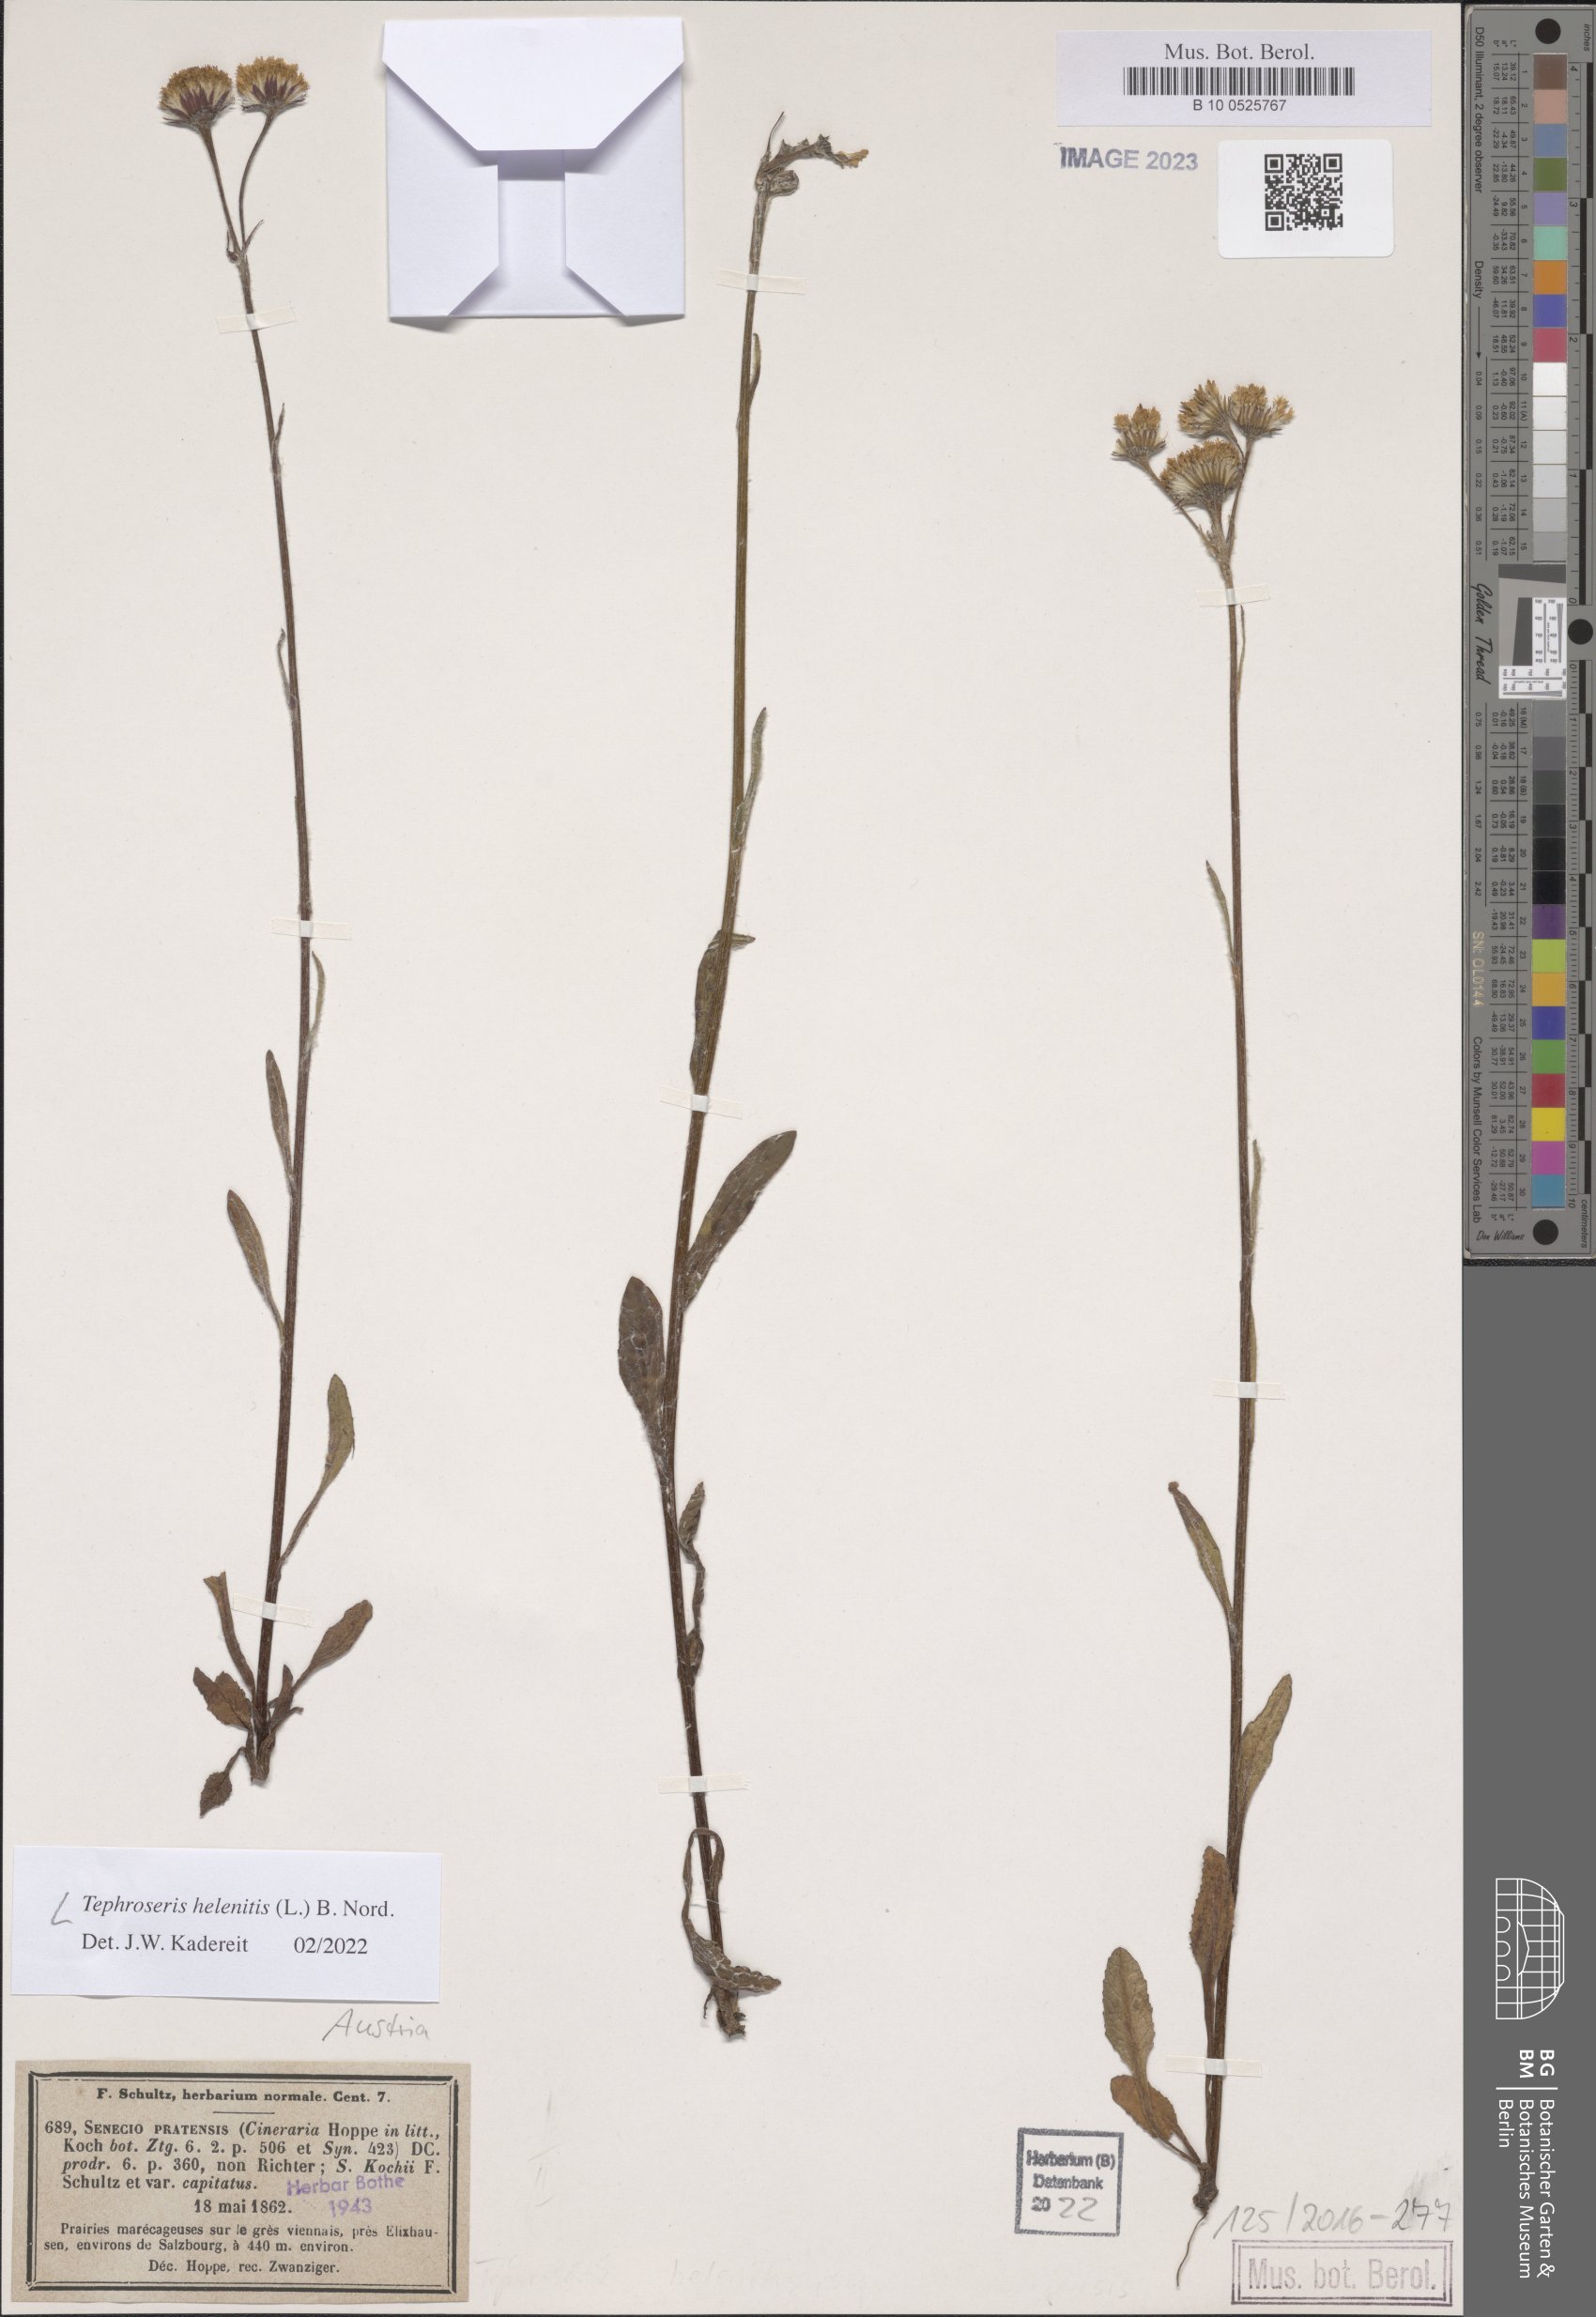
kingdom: Plantae
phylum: Tracheophyta
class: Magnoliopsida
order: Asterales
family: Asteraceae
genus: Tephroseris
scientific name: Tephroseris helenitis
